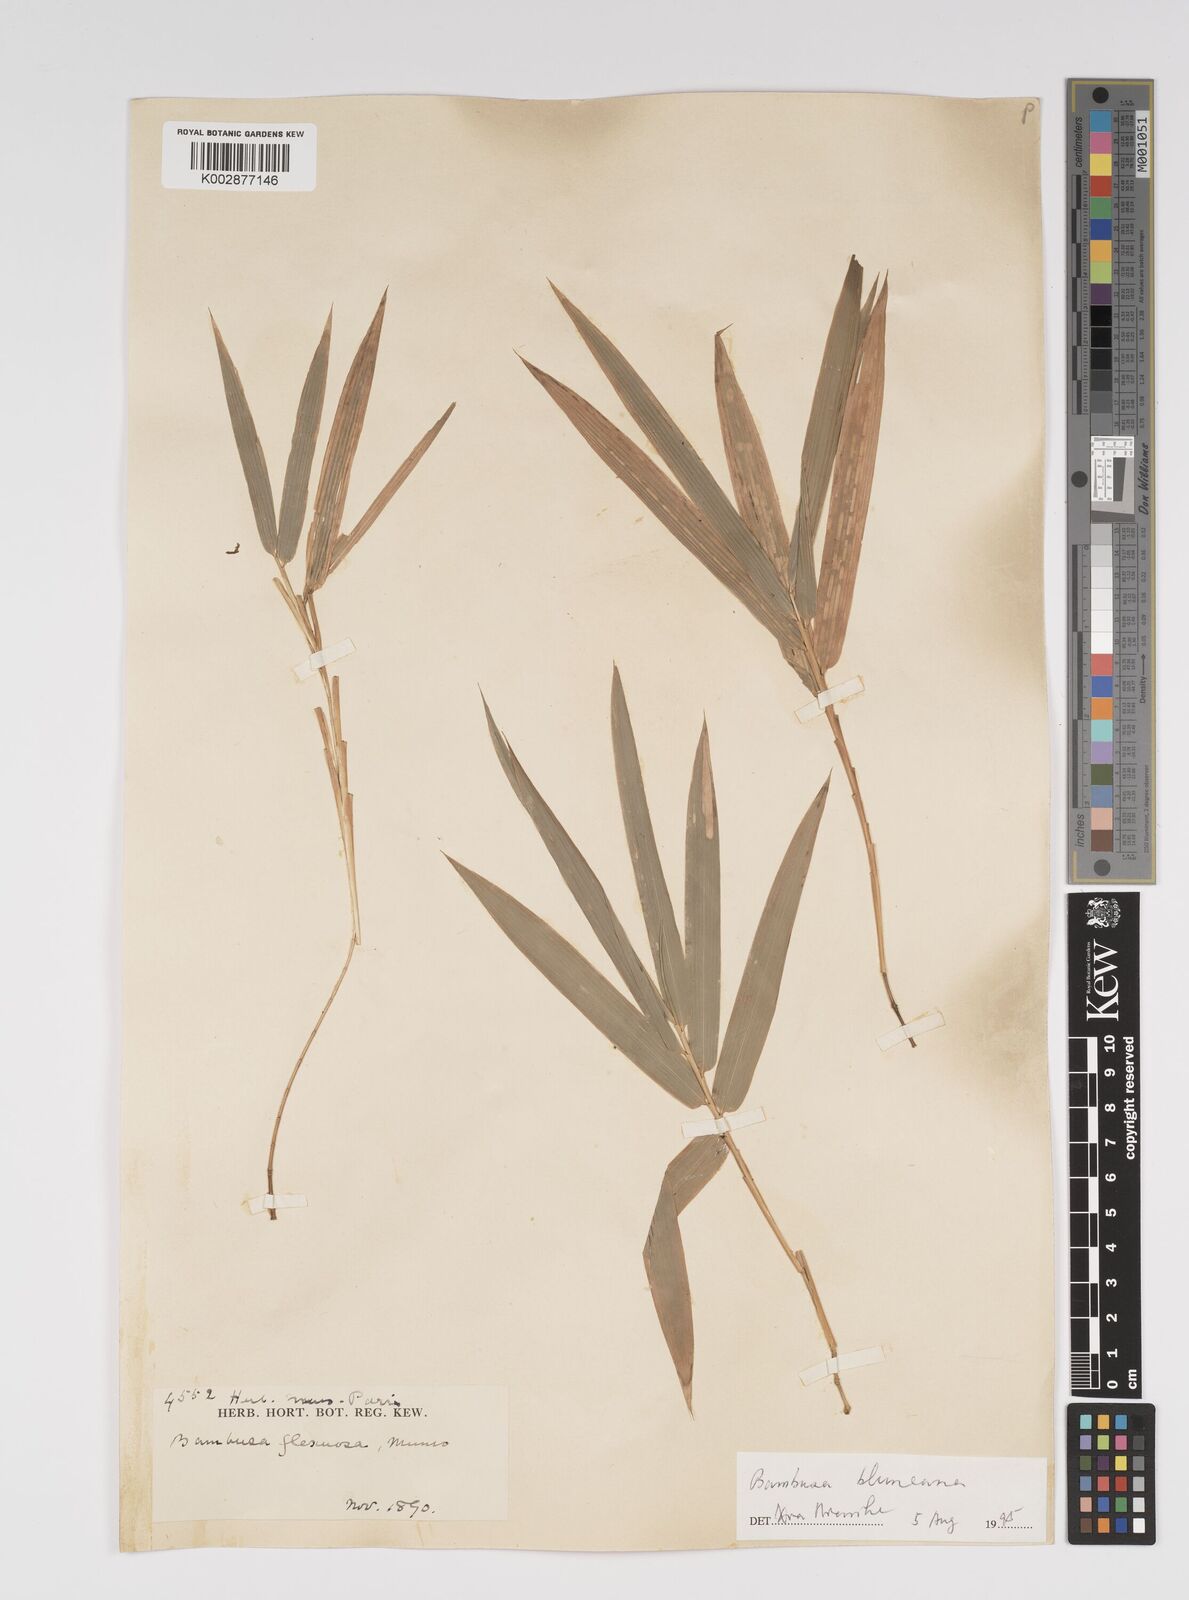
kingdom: Plantae
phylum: Tracheophyta
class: Liliopsida
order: Poales
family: Poaceae
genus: Bambusa
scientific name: Bambusa
